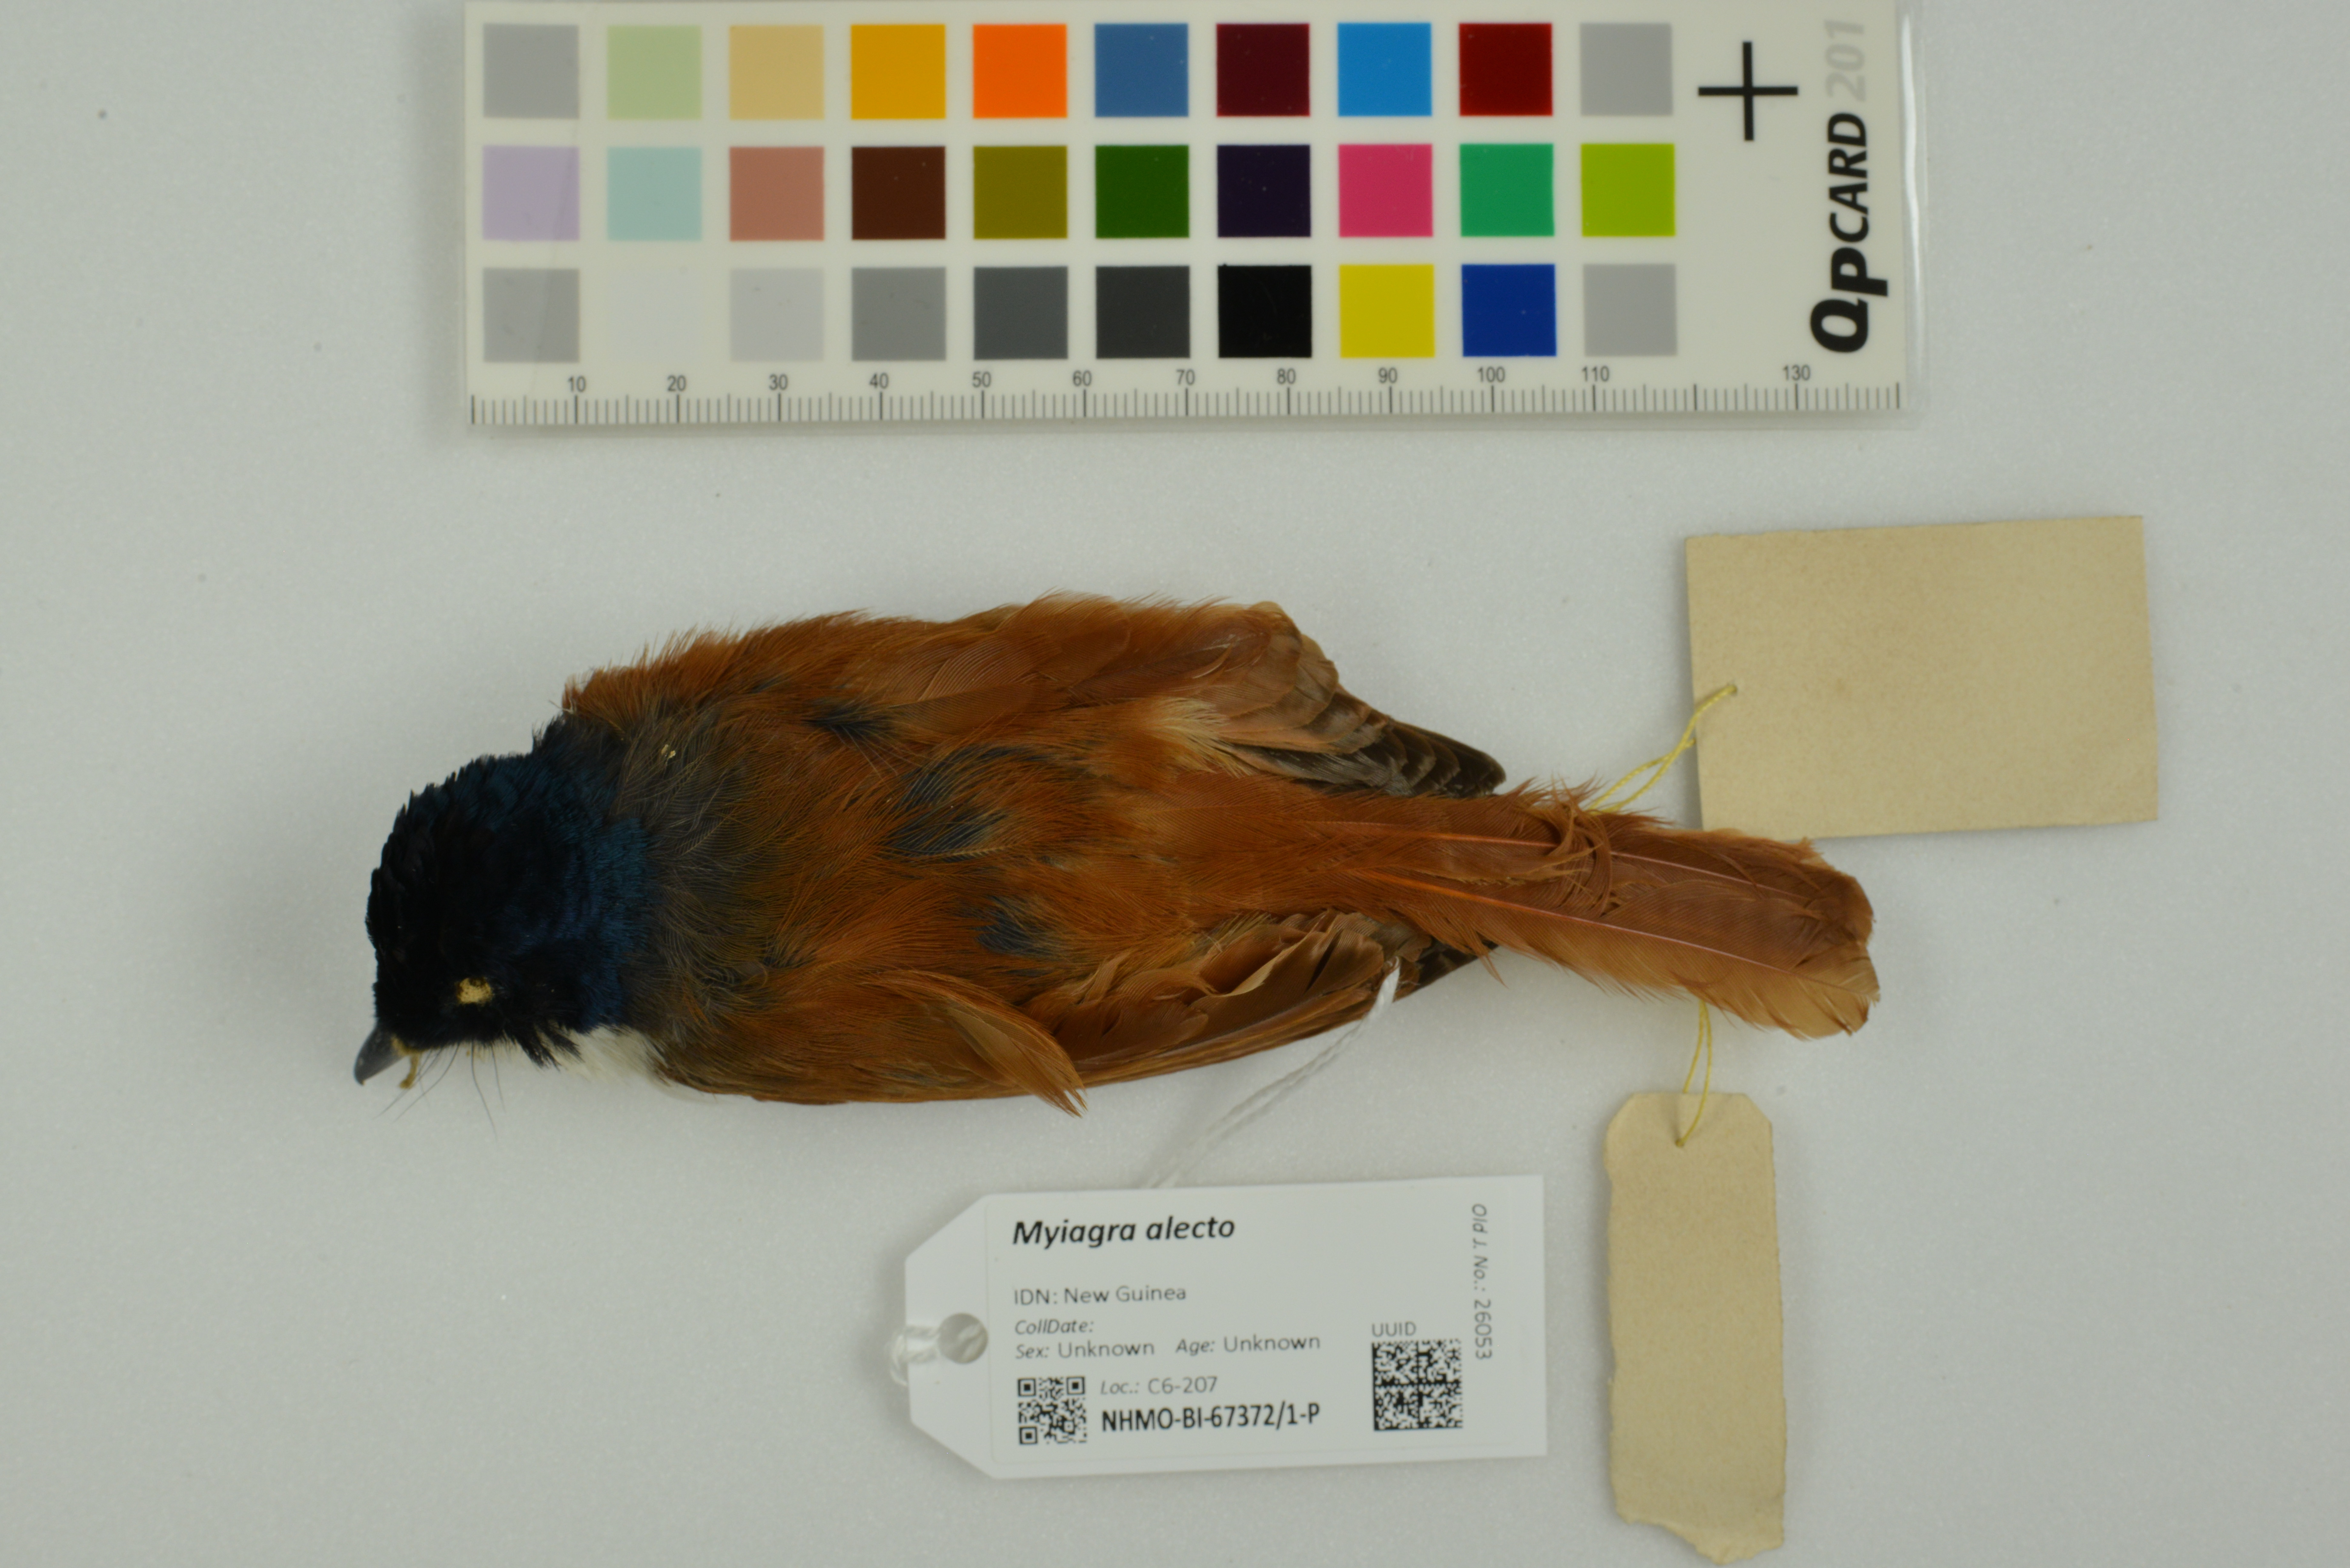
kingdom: Animalia
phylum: Chordata
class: Aves
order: Passeriformes
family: Monarchidae
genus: Myiagra
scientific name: Myiagra alecto
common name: Shining flycatcher
